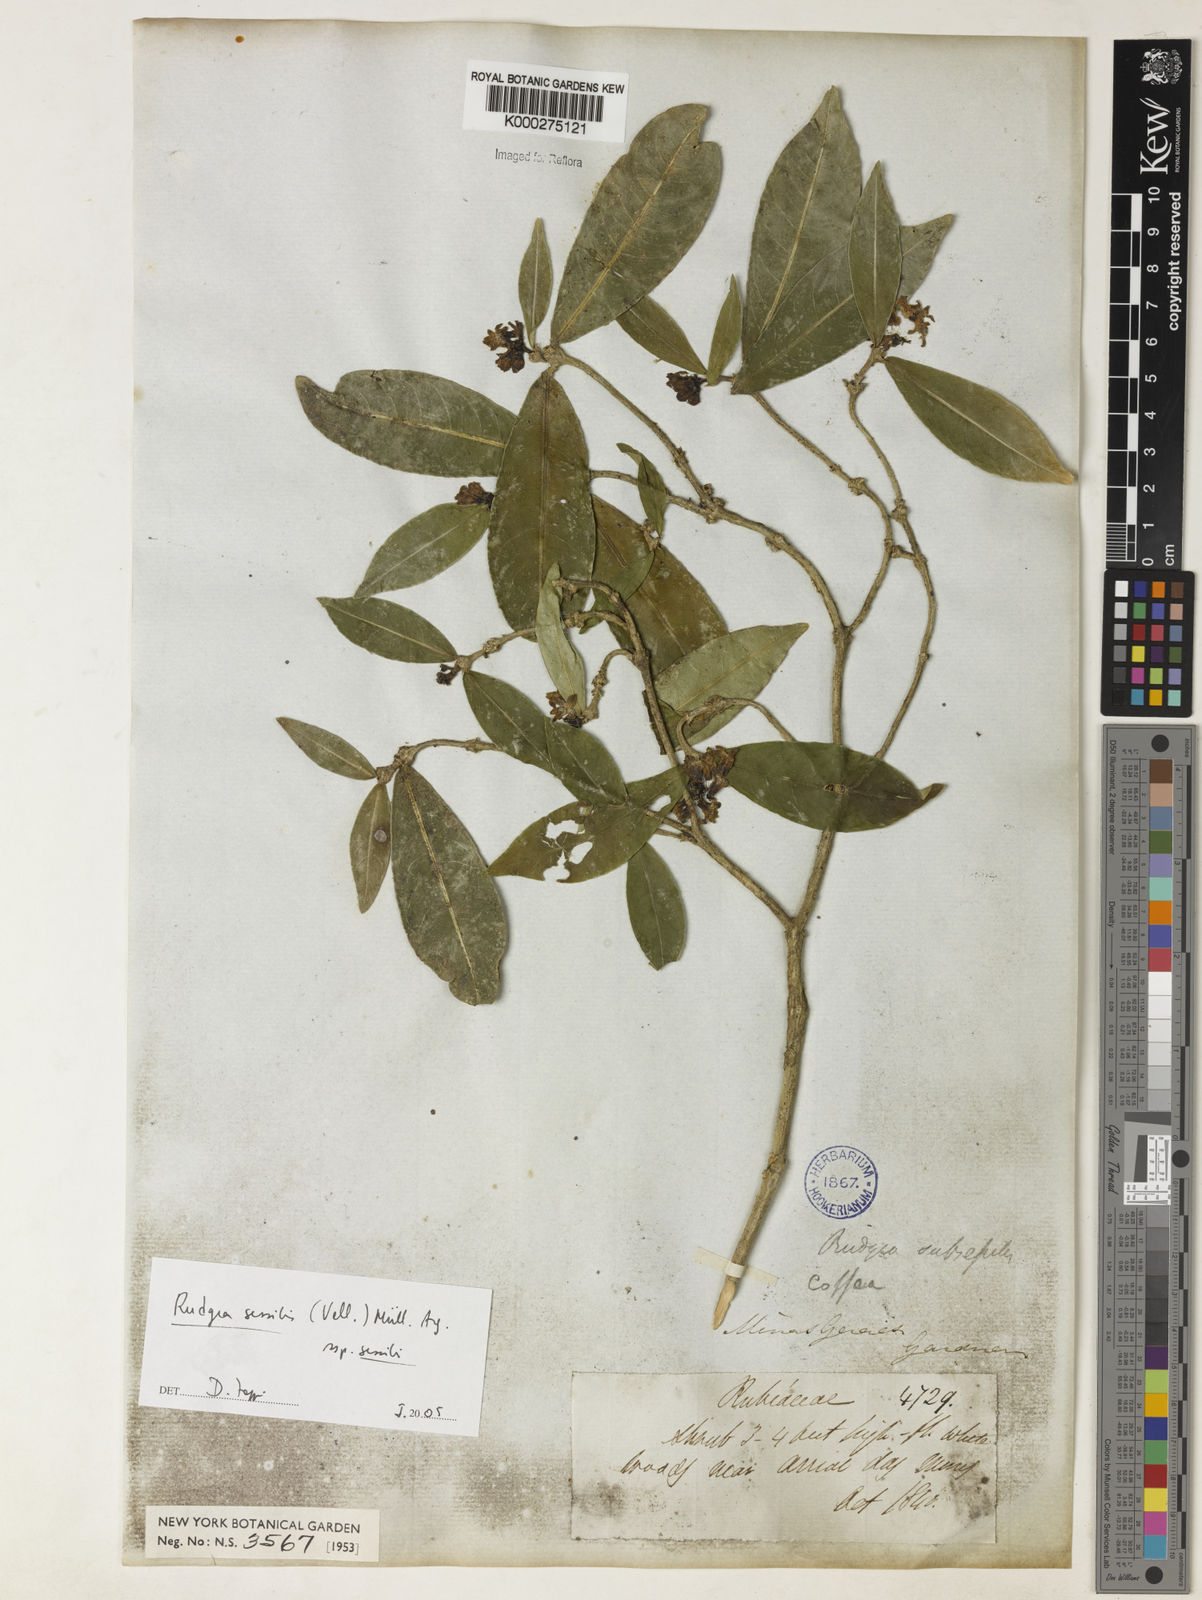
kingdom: Plantae
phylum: Tracheophyta
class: Magnoliopsida
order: Gentianales
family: Rubiaceae
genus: Rudgea
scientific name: Rudgea sessilis
